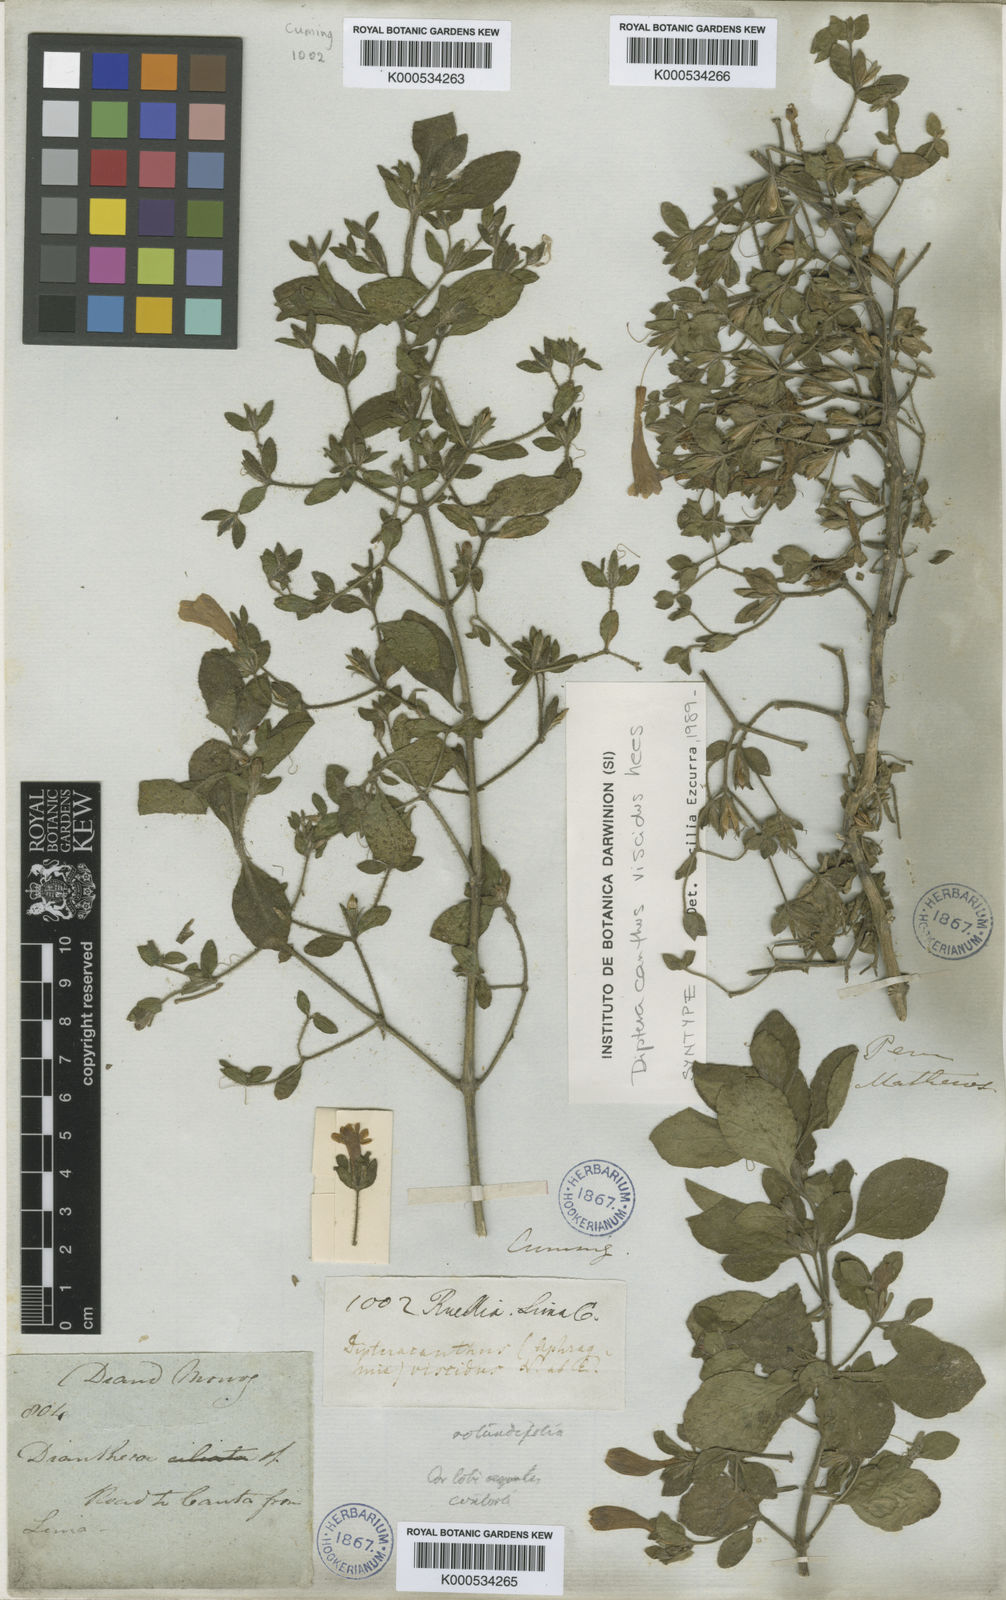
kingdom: Plantae
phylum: Tracheophyta
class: Magnoliopsida
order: Lamiales
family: Acanthaceae
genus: Ruellia
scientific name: Ruellia viscidula
